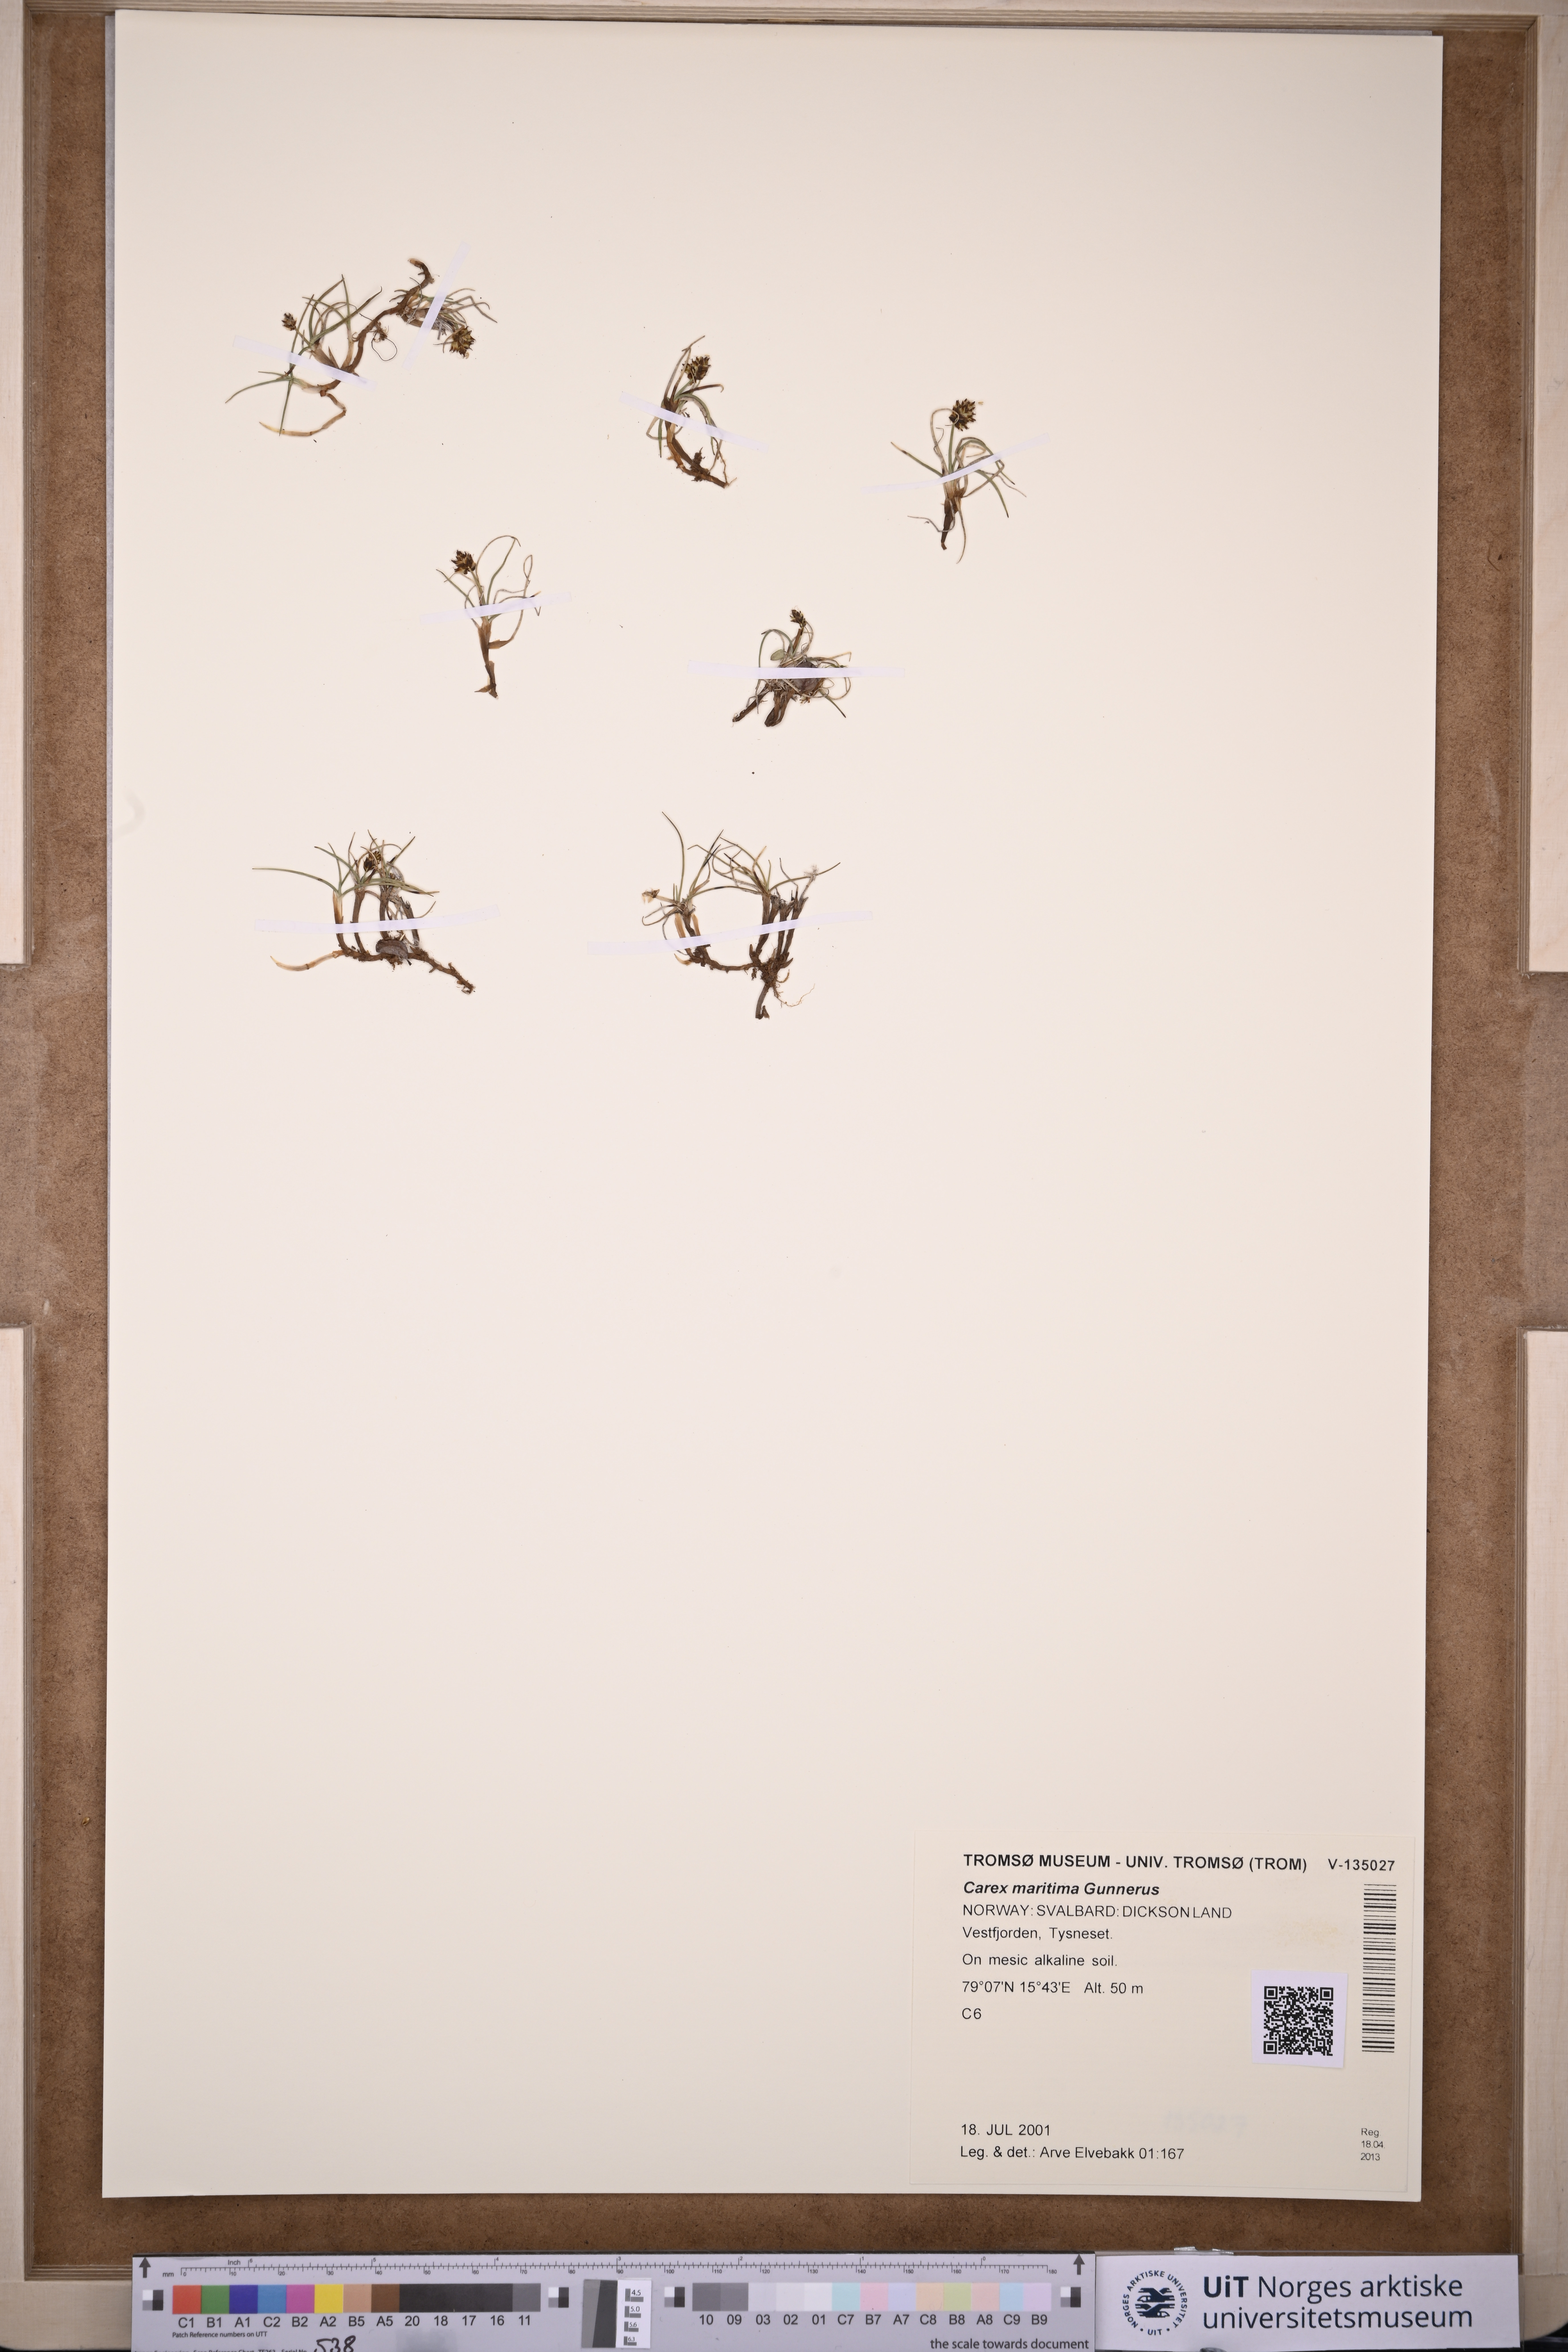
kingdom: Plantae
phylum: Tracheophyta
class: Liliopsida
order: Poales
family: Cyperaceae
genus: Carex
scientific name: Carex maritima
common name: Curved sedge
